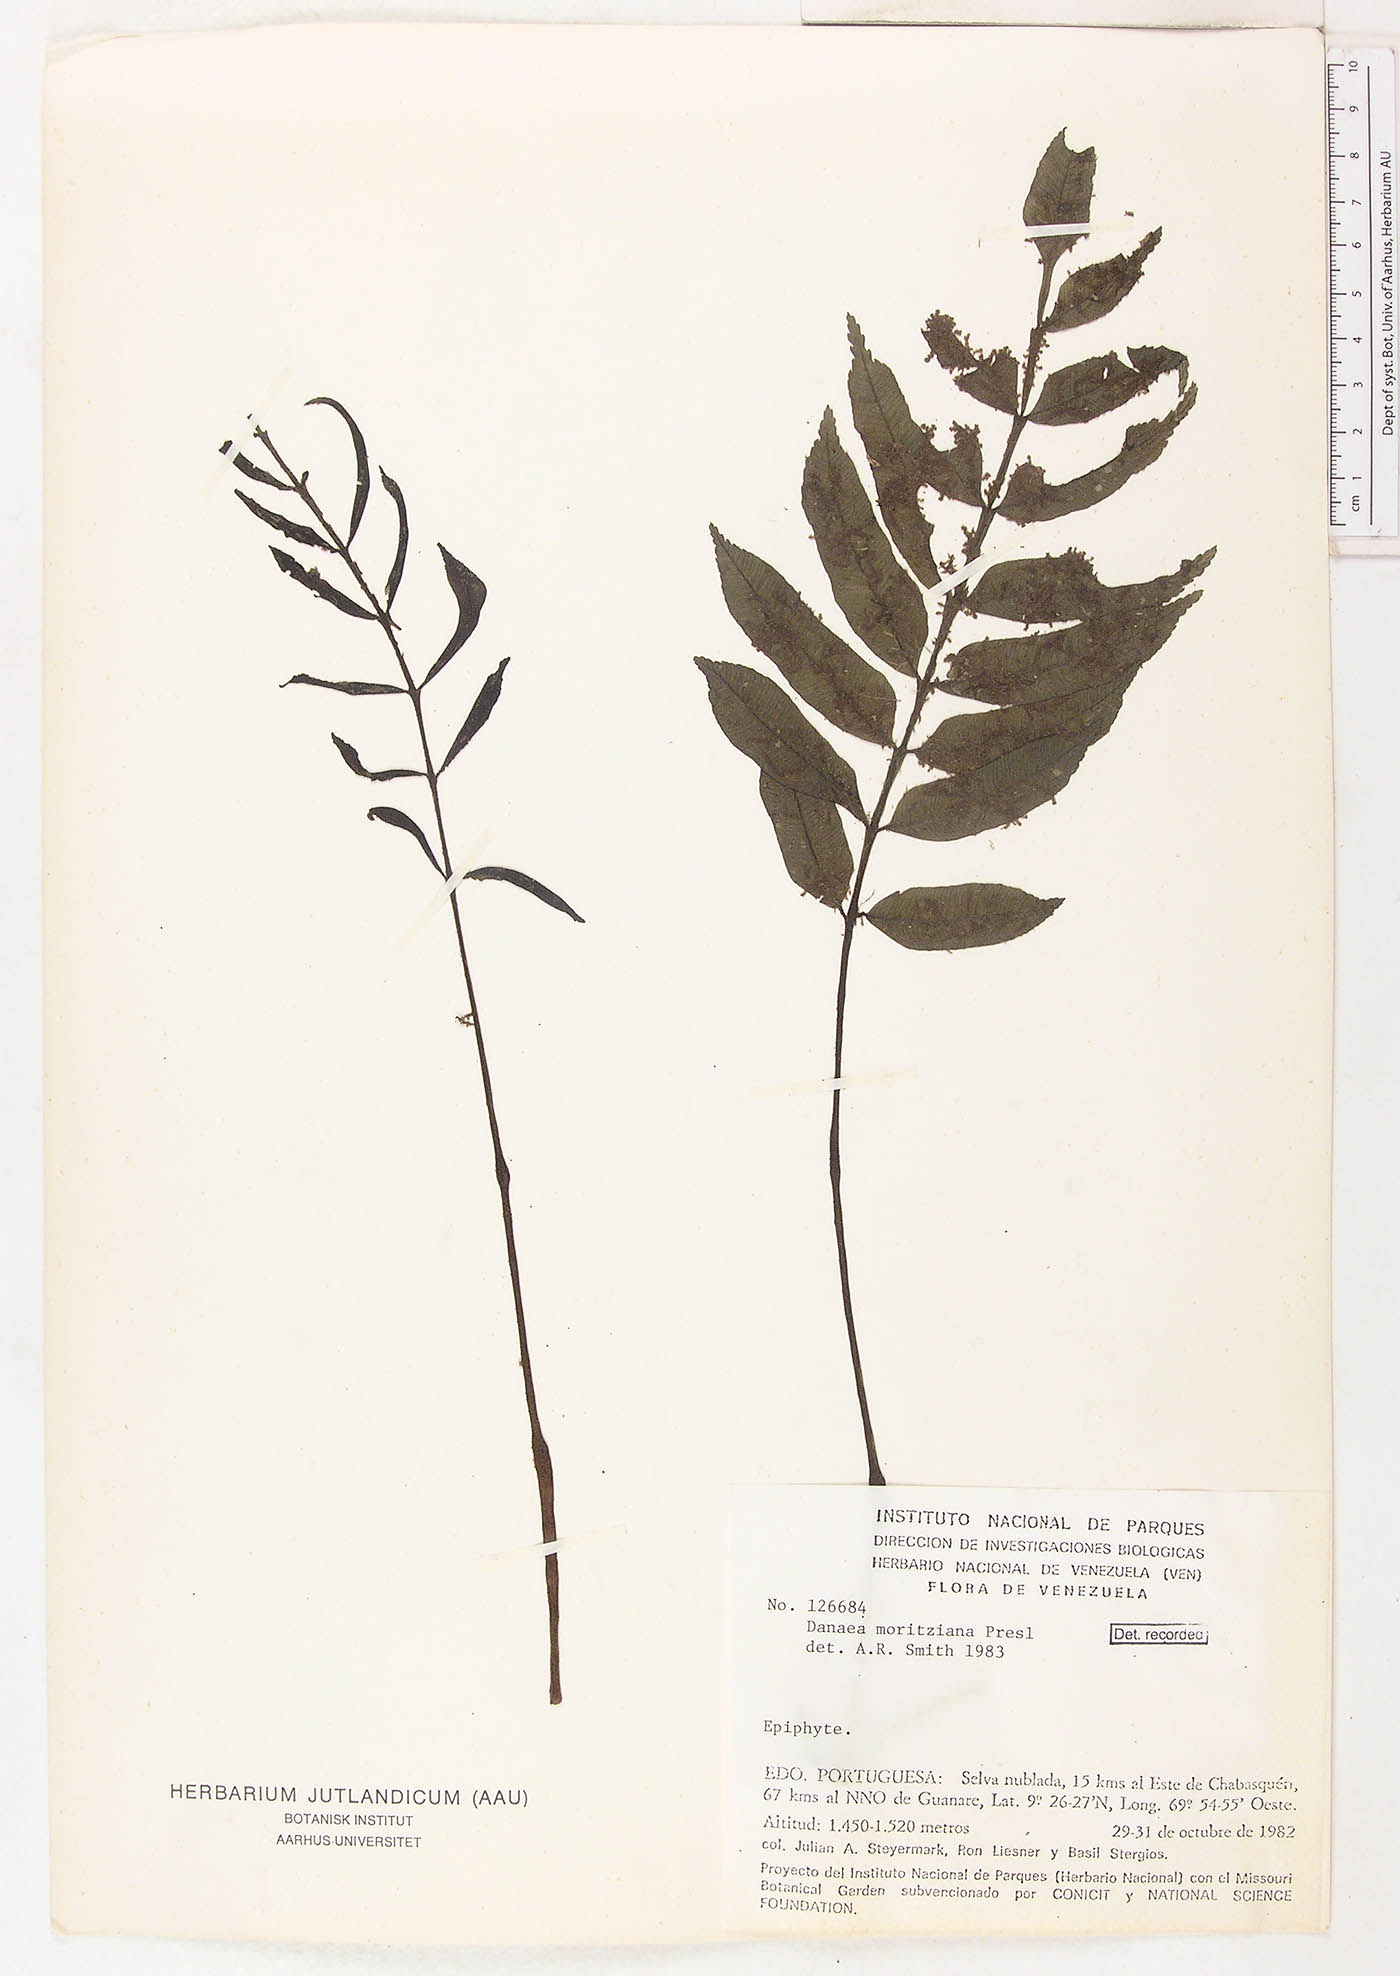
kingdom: Plantae
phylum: Tracheophyta
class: Polypodiopsida
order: Marattiales
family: Marattiaceae
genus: Danaea
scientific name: Danaea moritziana
